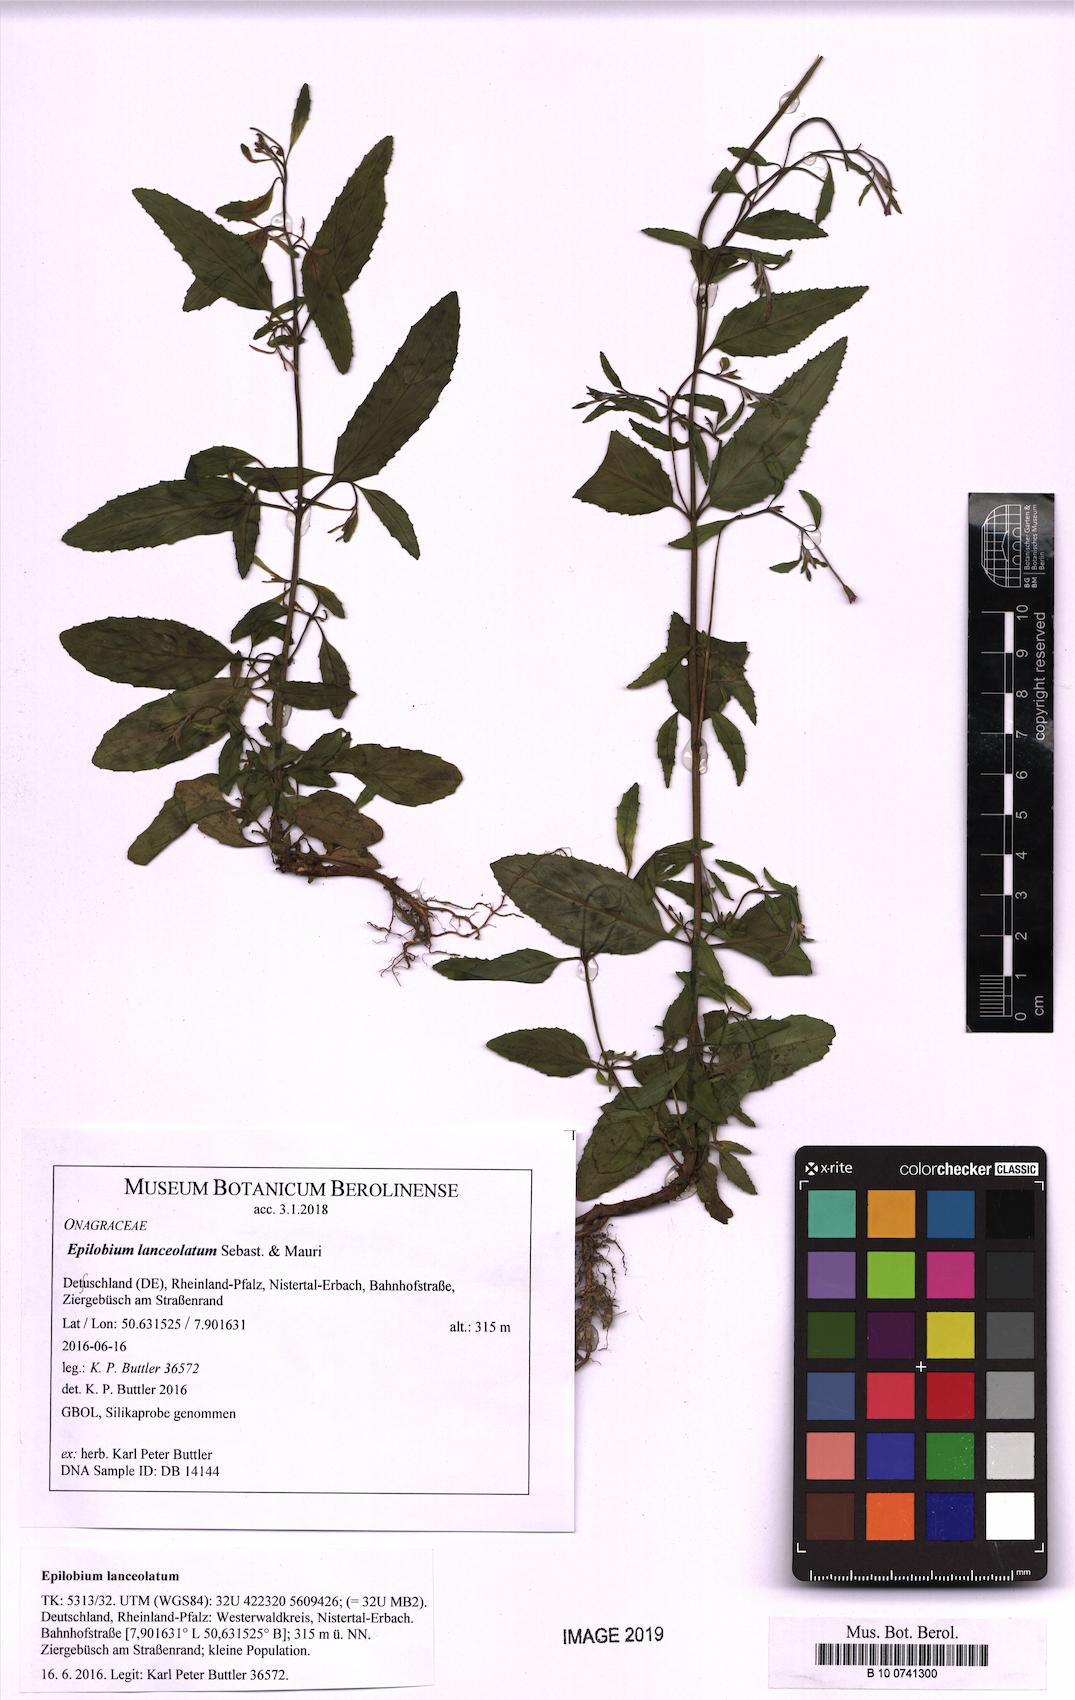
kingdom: Plantae
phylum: Tracheophyta
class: Magnoliopsida
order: Myrtales
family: Onagraceae
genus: Epilobium
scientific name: Epilobium lanceolatum
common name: Spear-leaved willowherb
